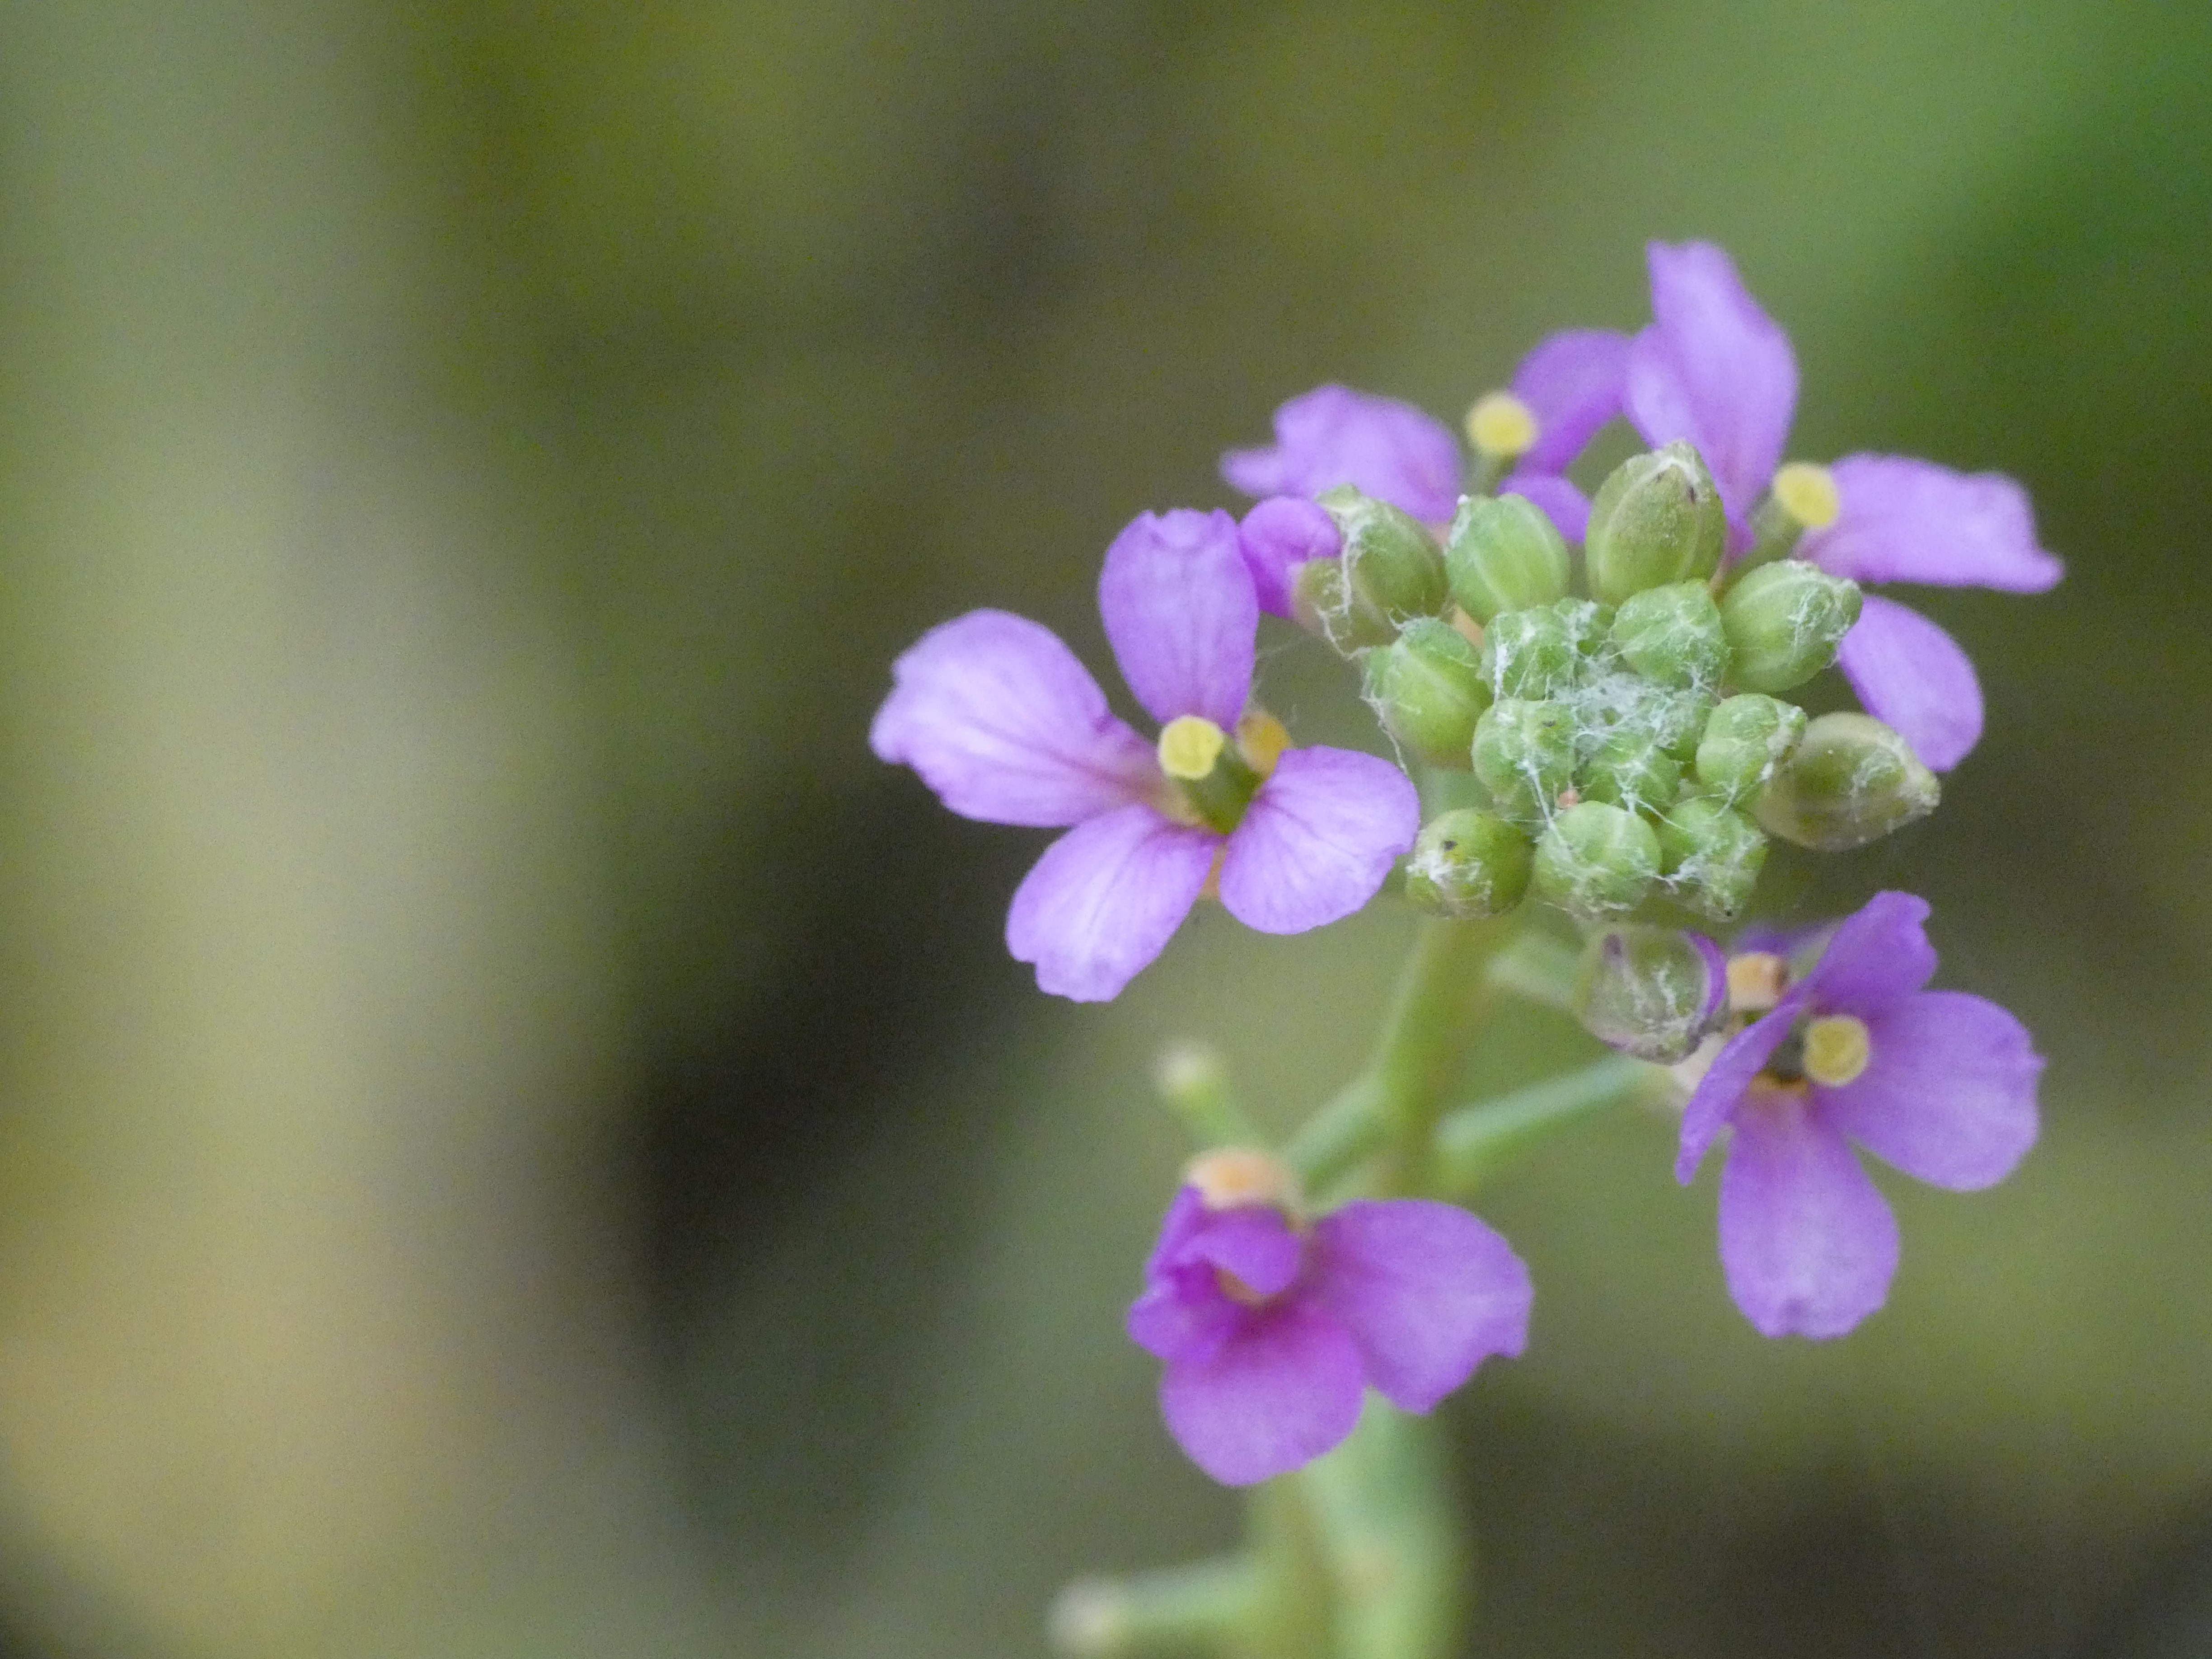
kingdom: Plantae
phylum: Tracheophyta
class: Magnoliopsida
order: Brassicales
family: Brassicaceae
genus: Cakile
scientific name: Cakile maritima
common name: Østersø-strandsennep
